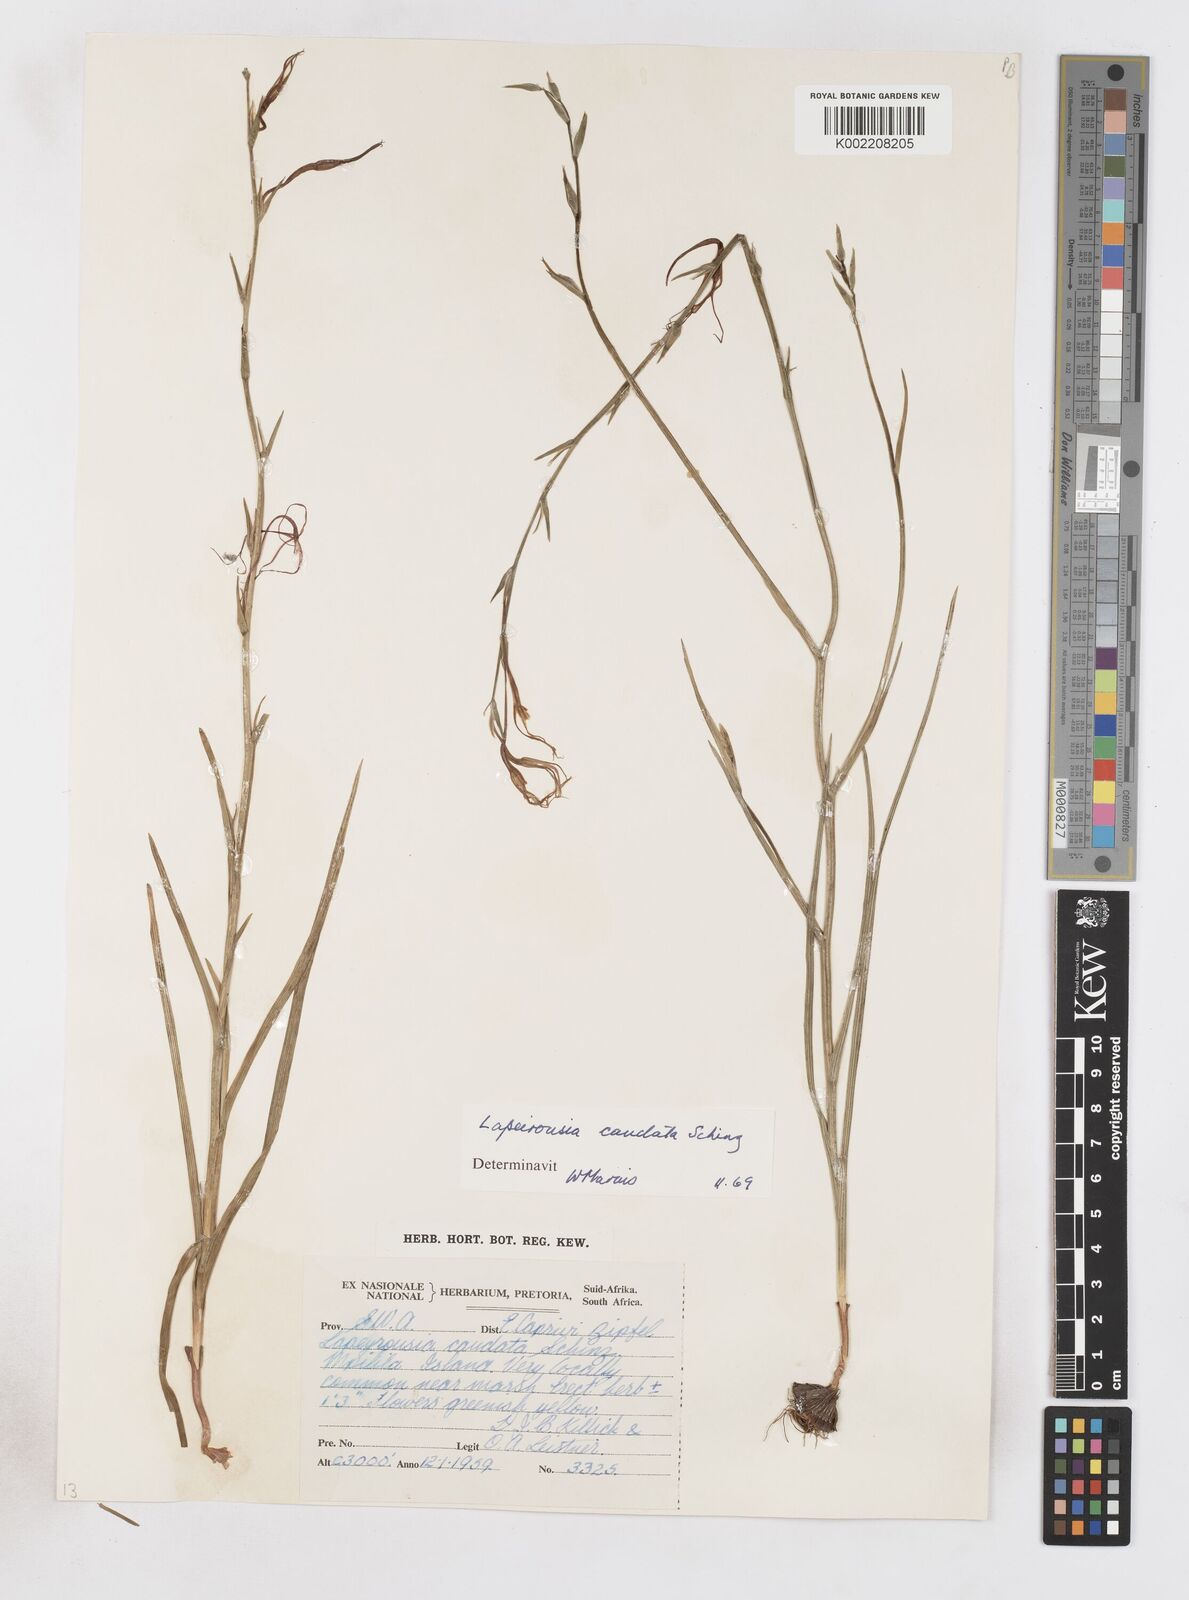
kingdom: Plantae
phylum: Tracheophyta
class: Liliopsida
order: Asparagales
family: Iridaceae
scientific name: Iridaceae
